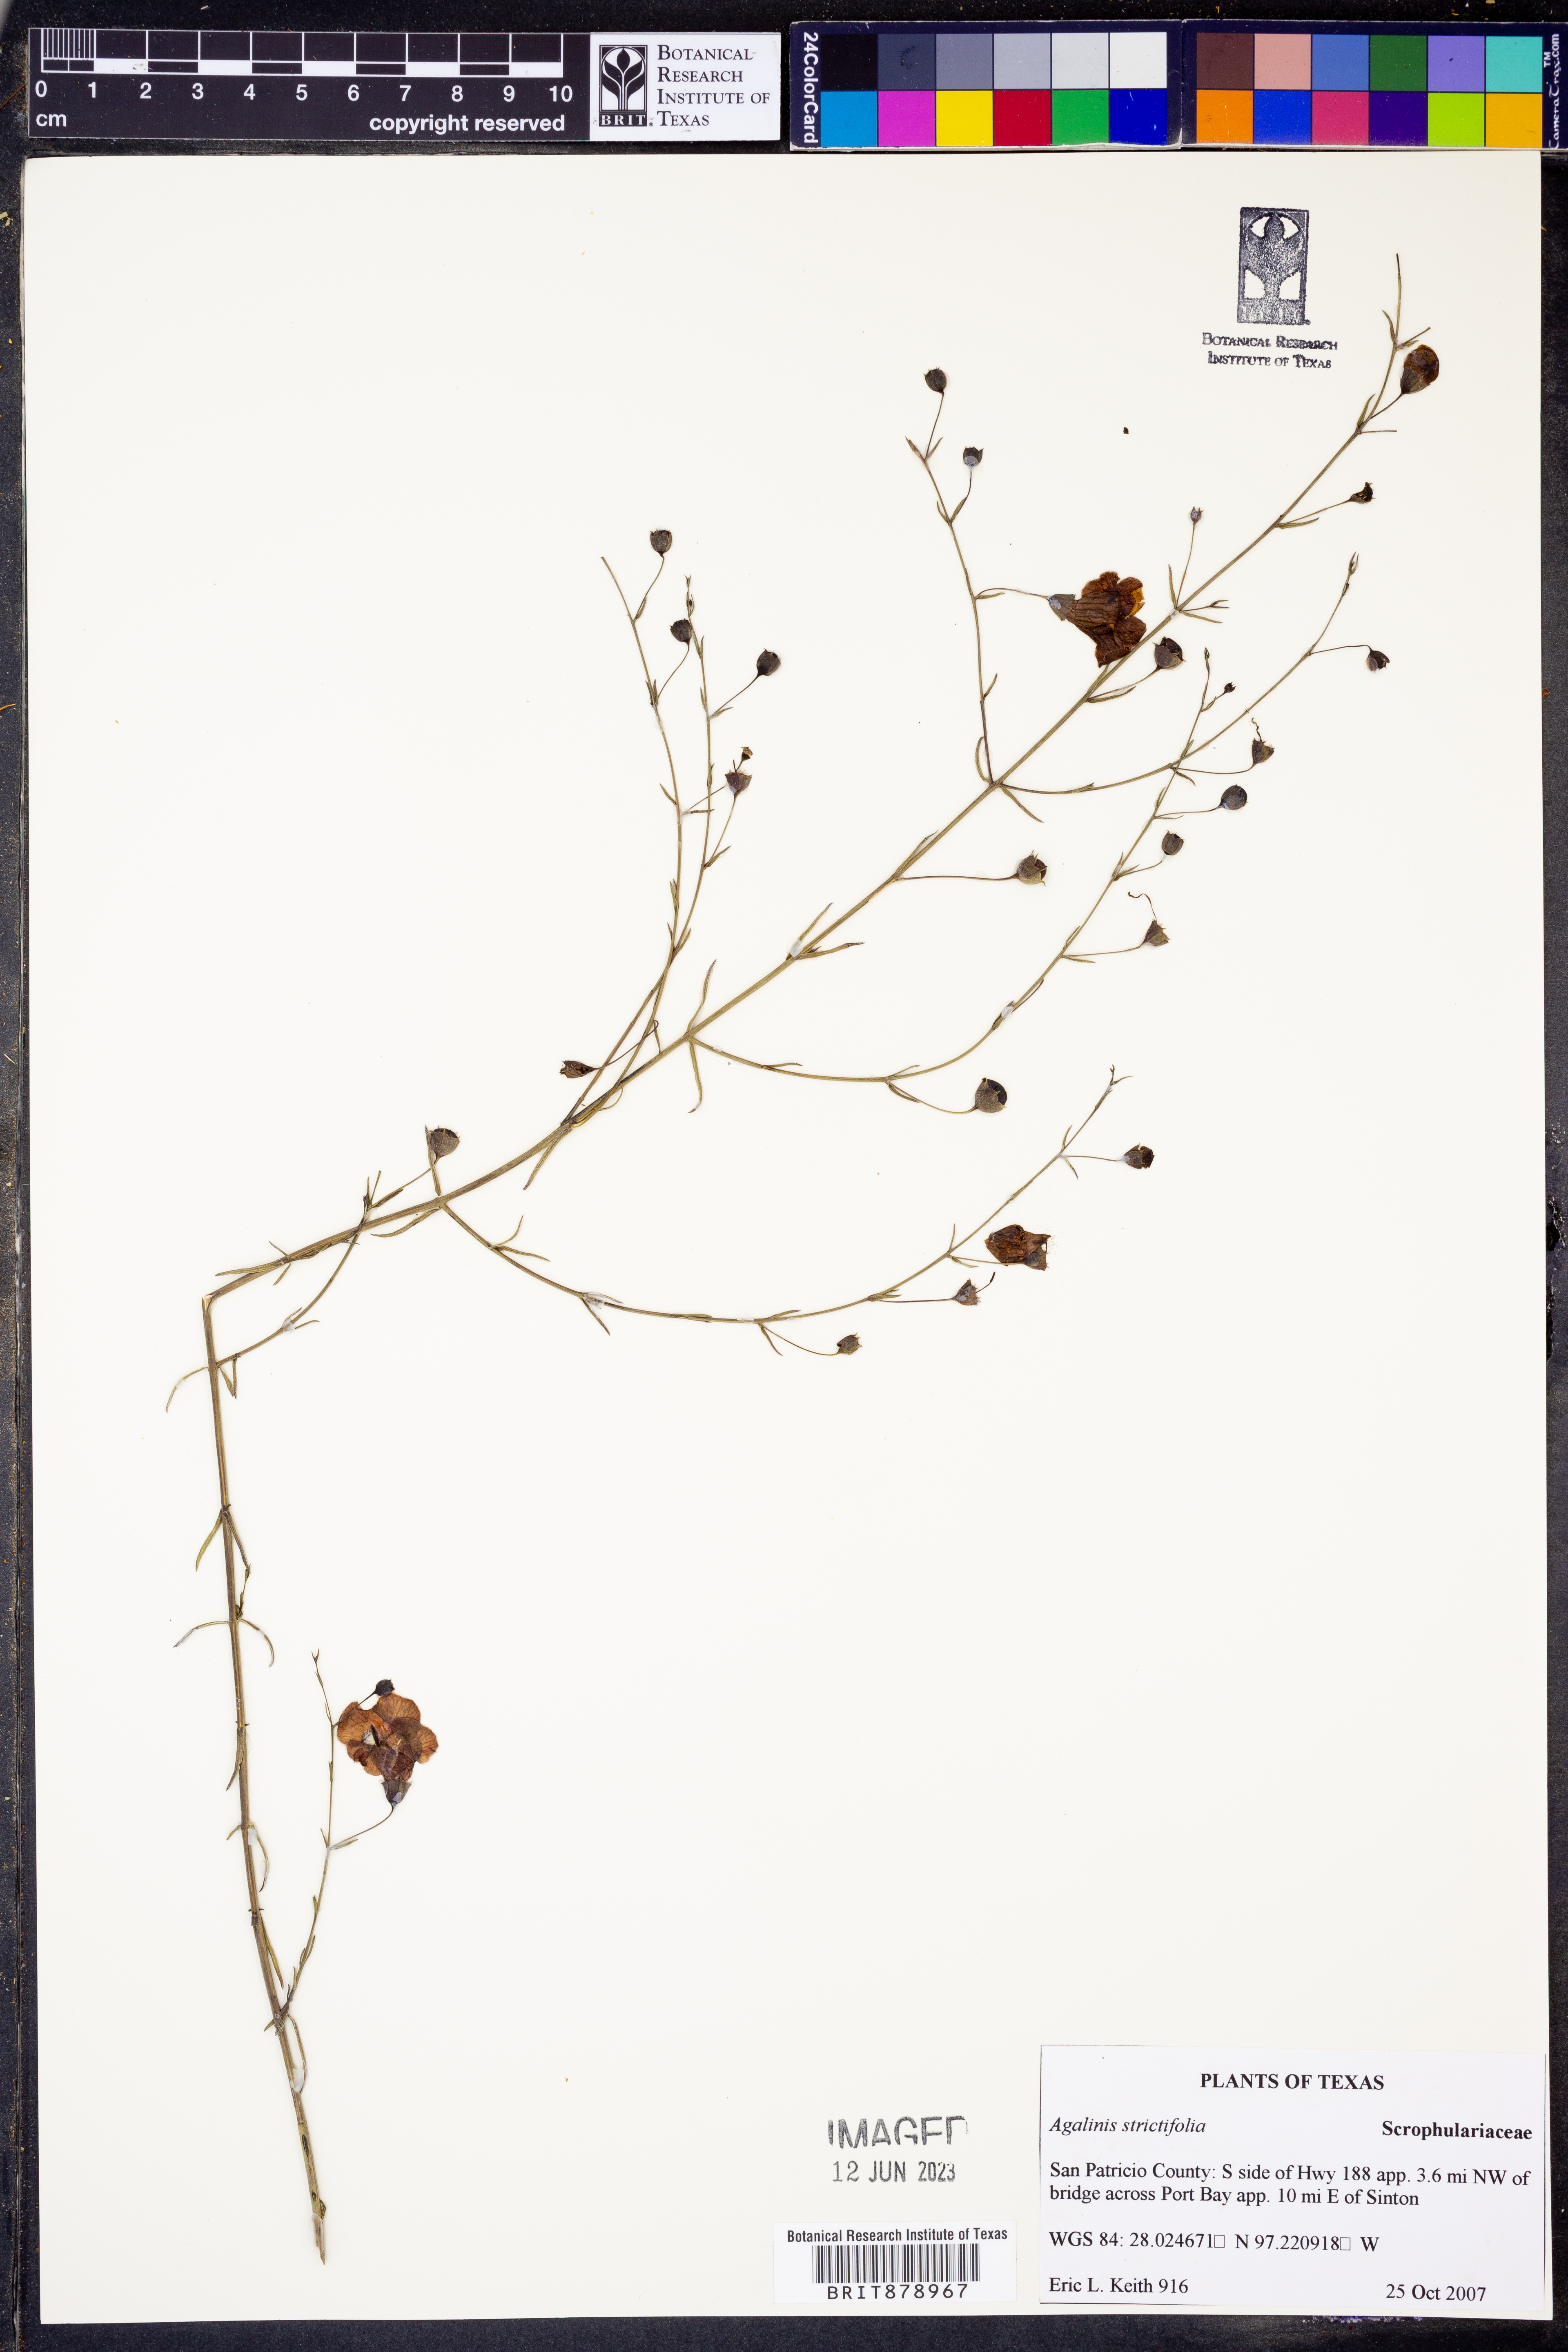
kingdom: Plantae
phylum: Tracheophyta
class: Magnoliopsida
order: Lamiales
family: Orobanchaceae
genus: Agalinis
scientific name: Agalinis strictifolia
